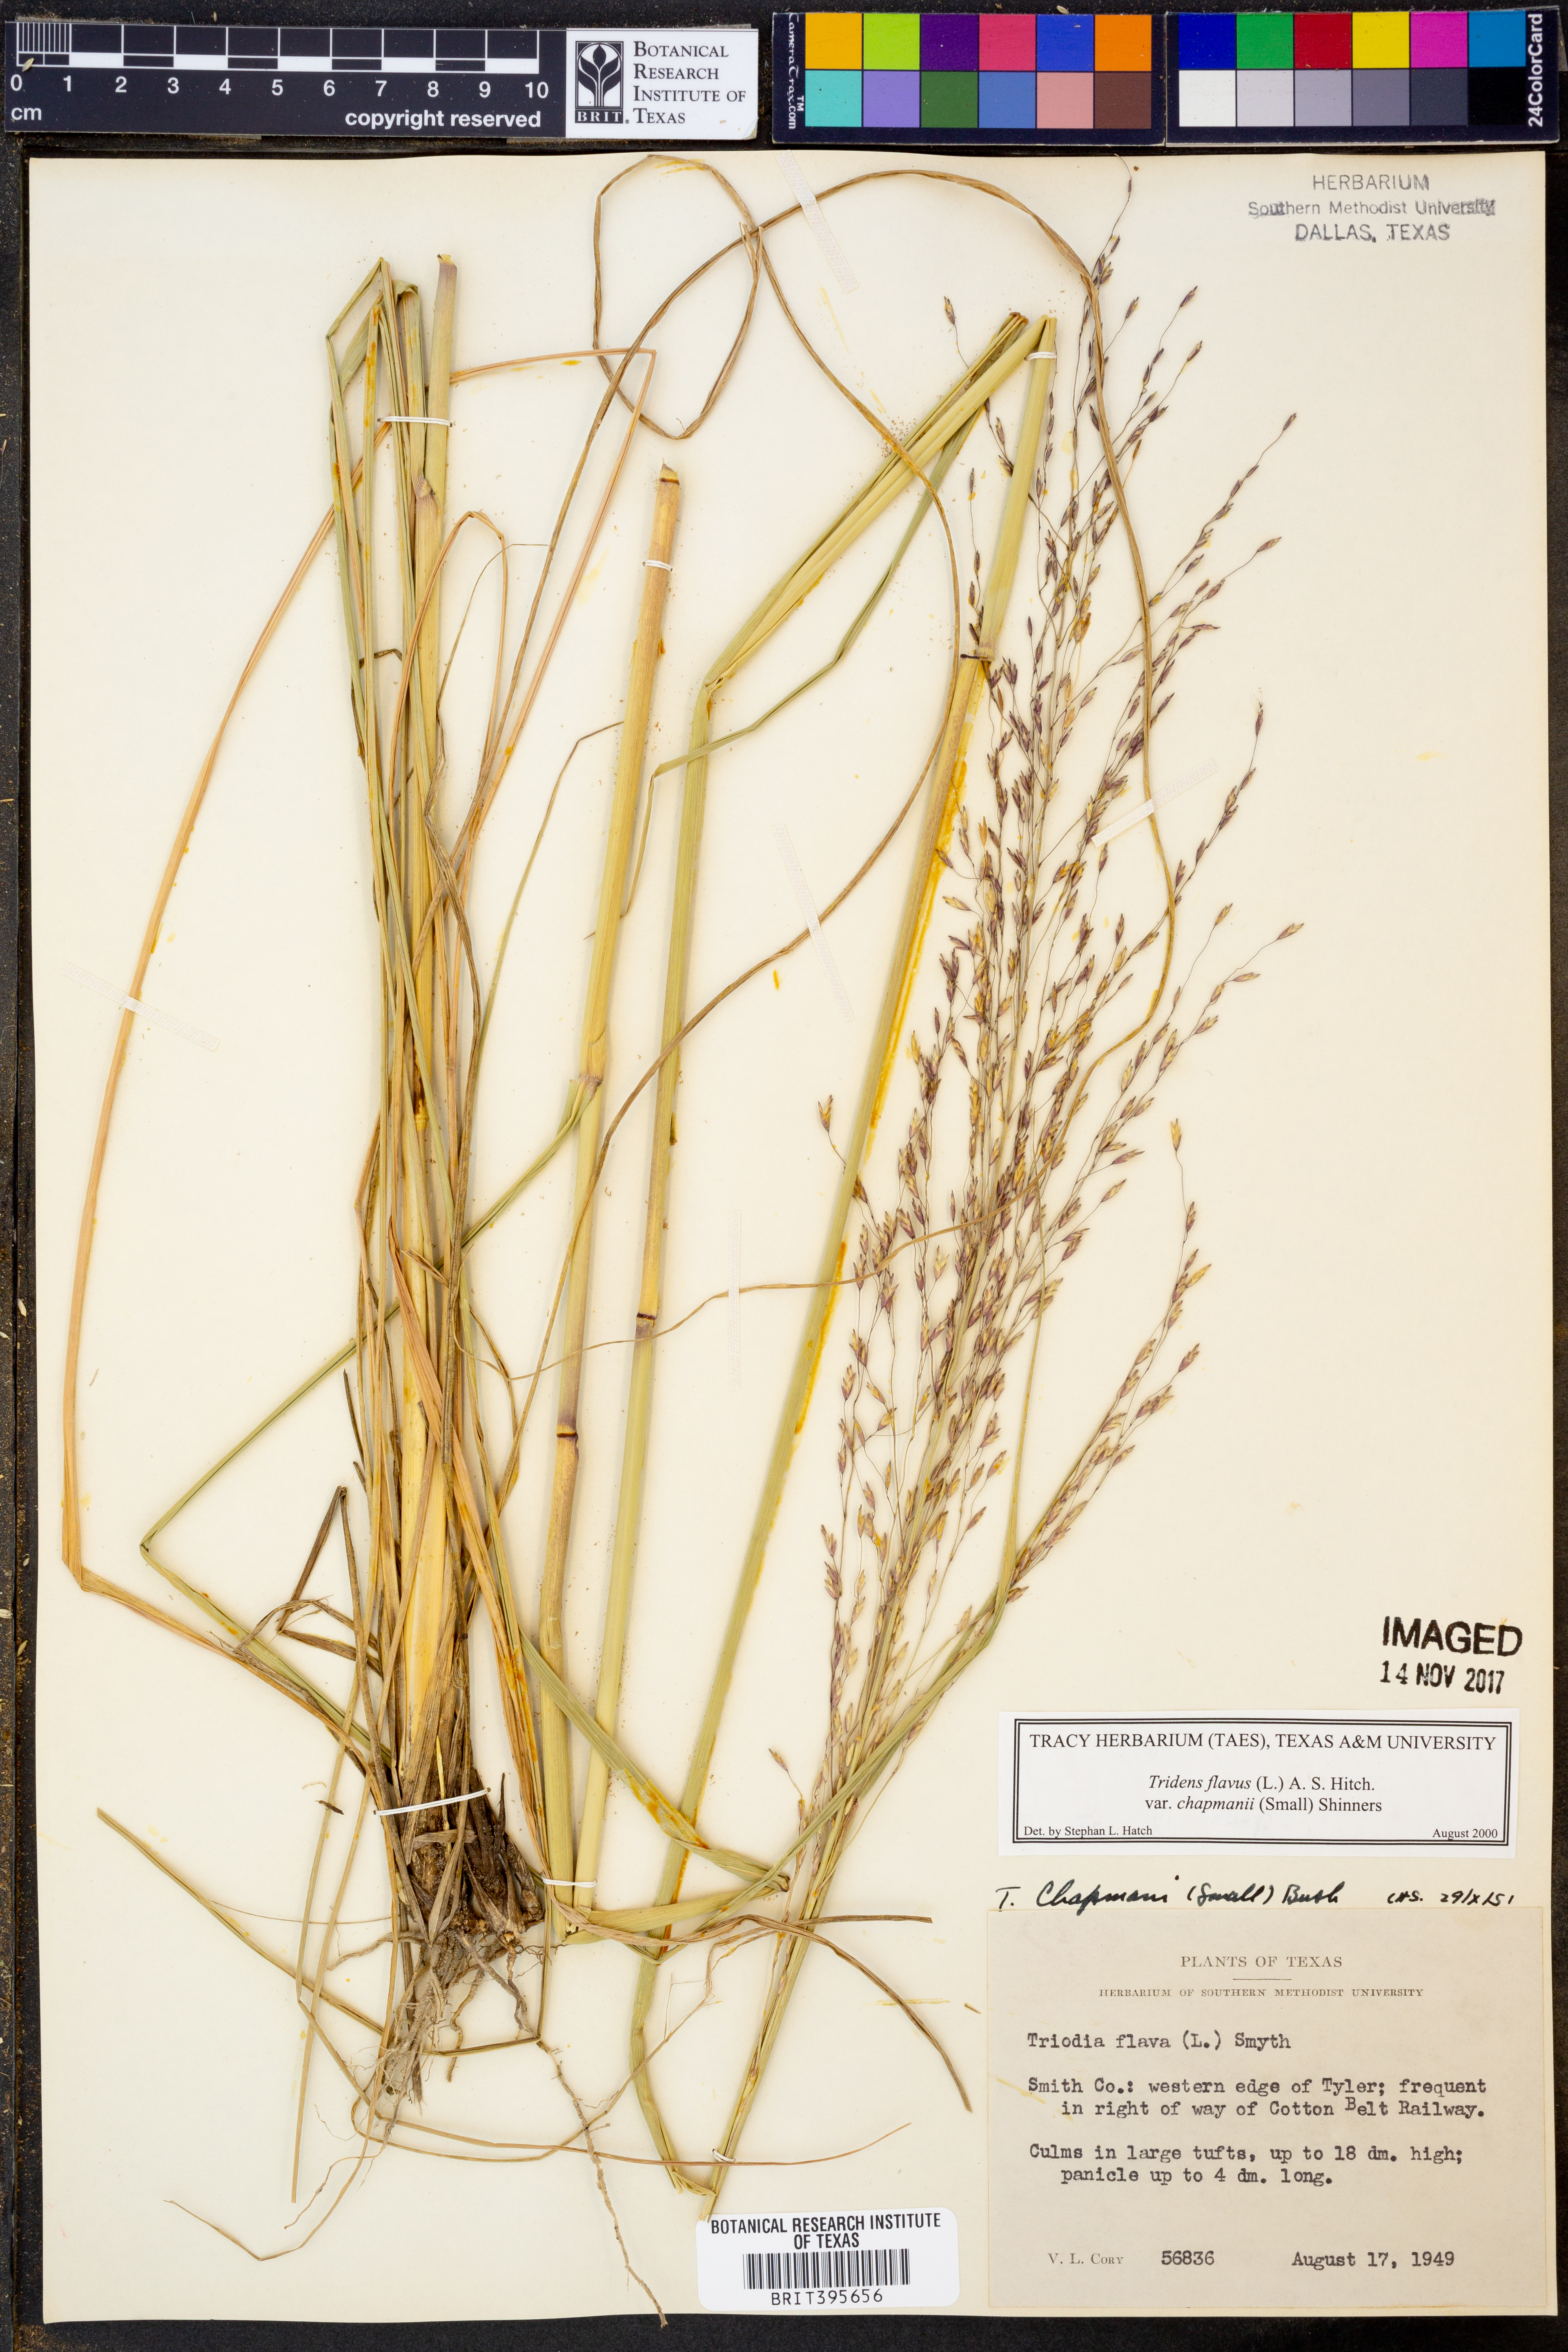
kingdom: Plantae
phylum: Tracheophyta
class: Liliopsida
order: Poales
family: Poaceae
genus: Tridens
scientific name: Tridens chapmanii
